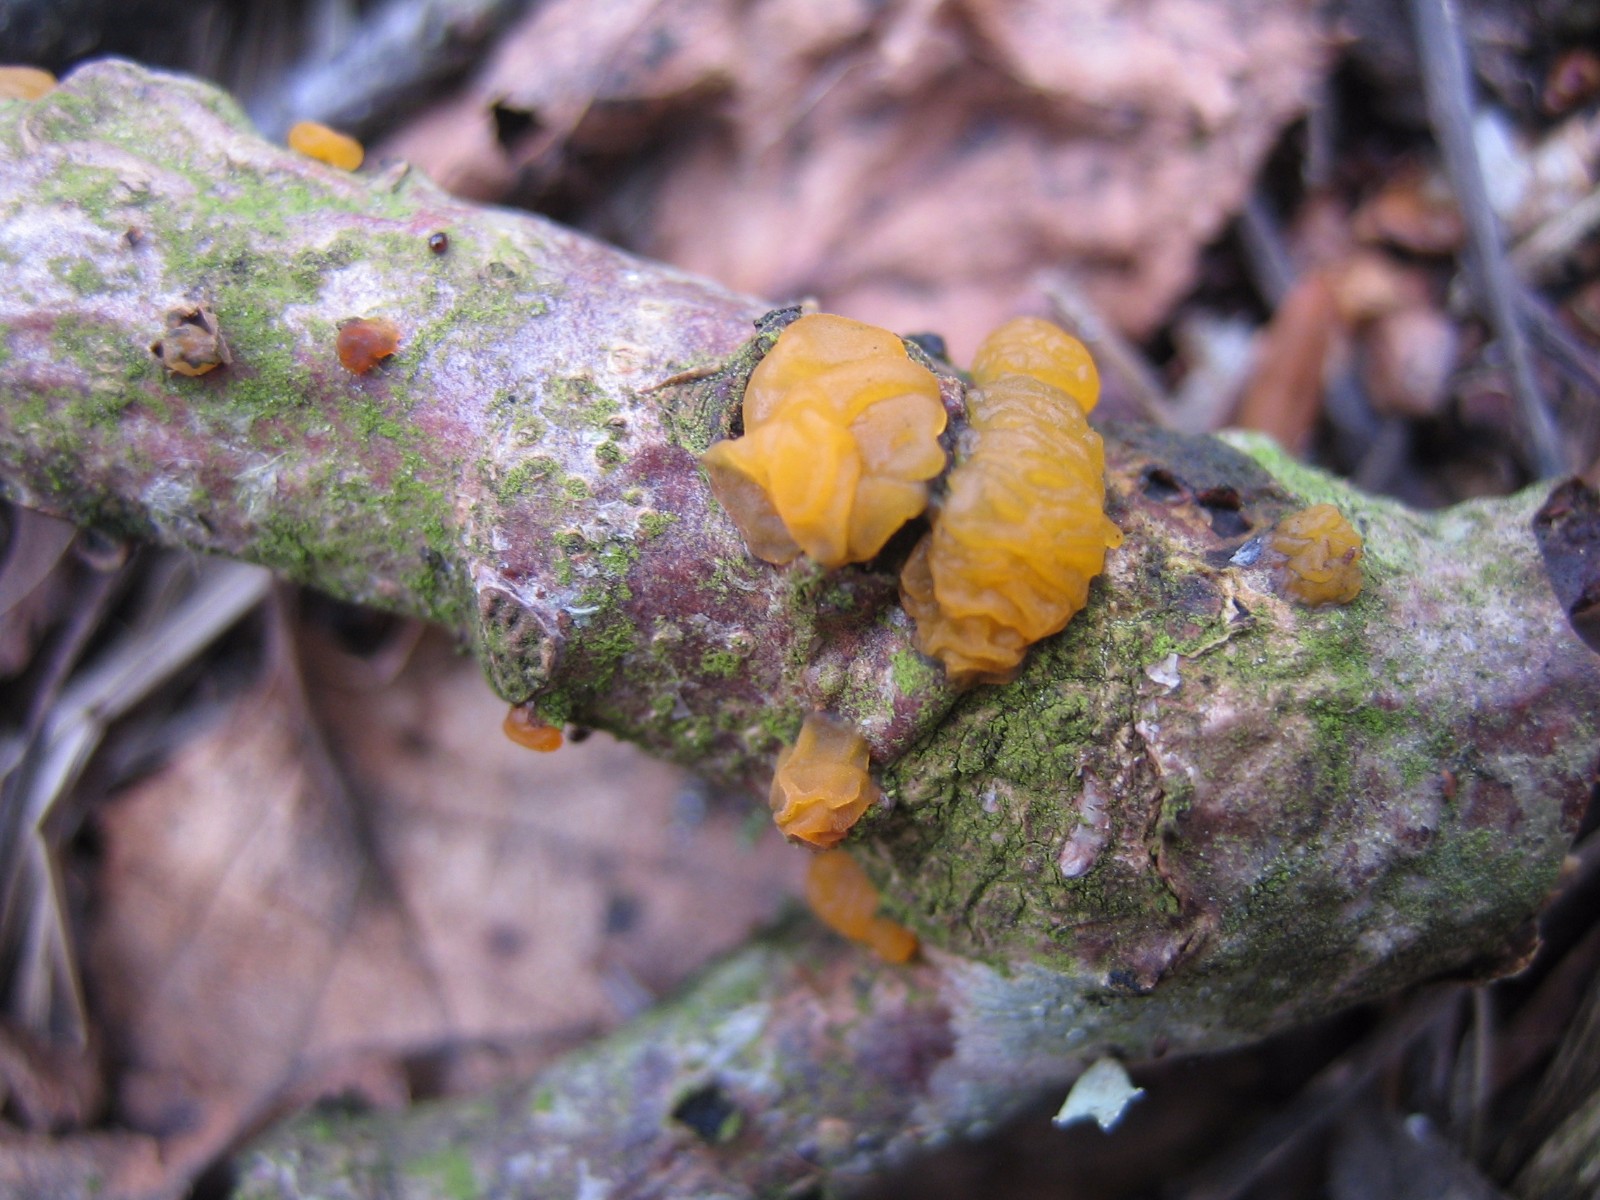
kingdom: Fungi
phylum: Basidiomycota
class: Dacrymycetes
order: Dacrymycetales
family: Dacrymycetaceae
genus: Dacrymyces
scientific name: Dacrymyces lacrymalis
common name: rynket tåresvamp
